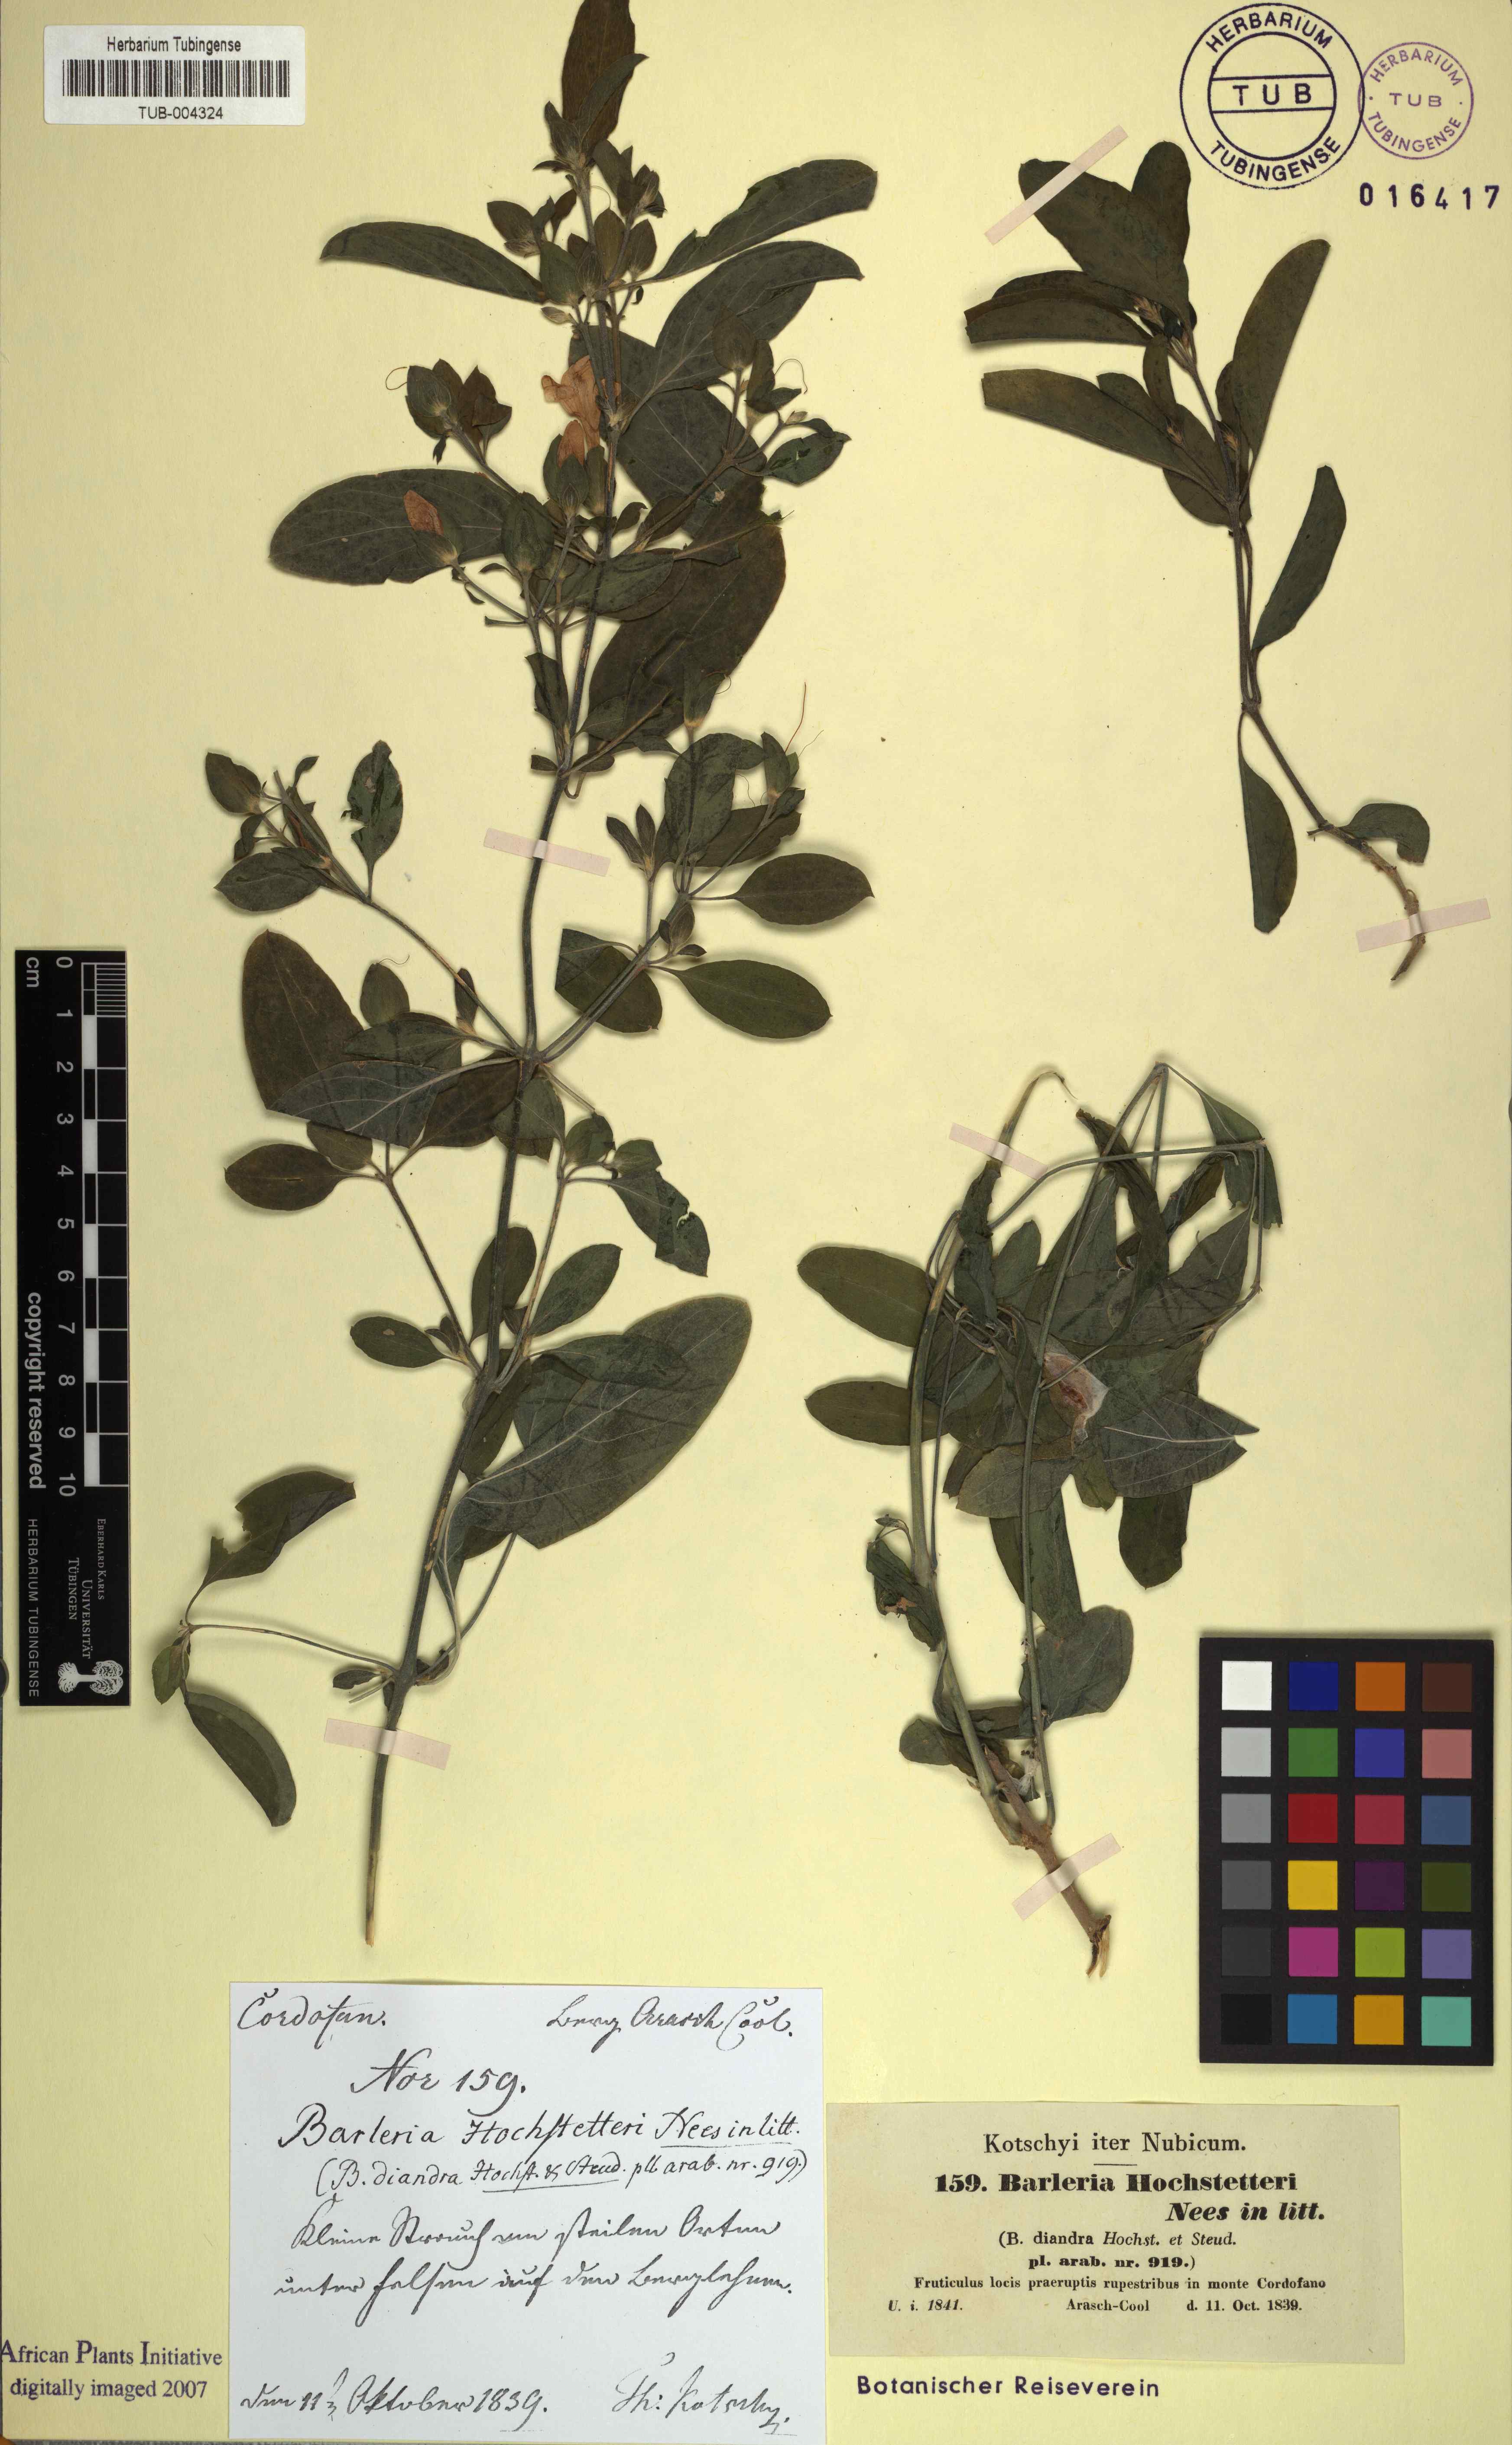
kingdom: Plantae
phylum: Tracheophyta
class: Magnoliopsida
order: Lamiales
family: Acanthaceae
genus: Barleria
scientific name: Barleria hochstetteri
